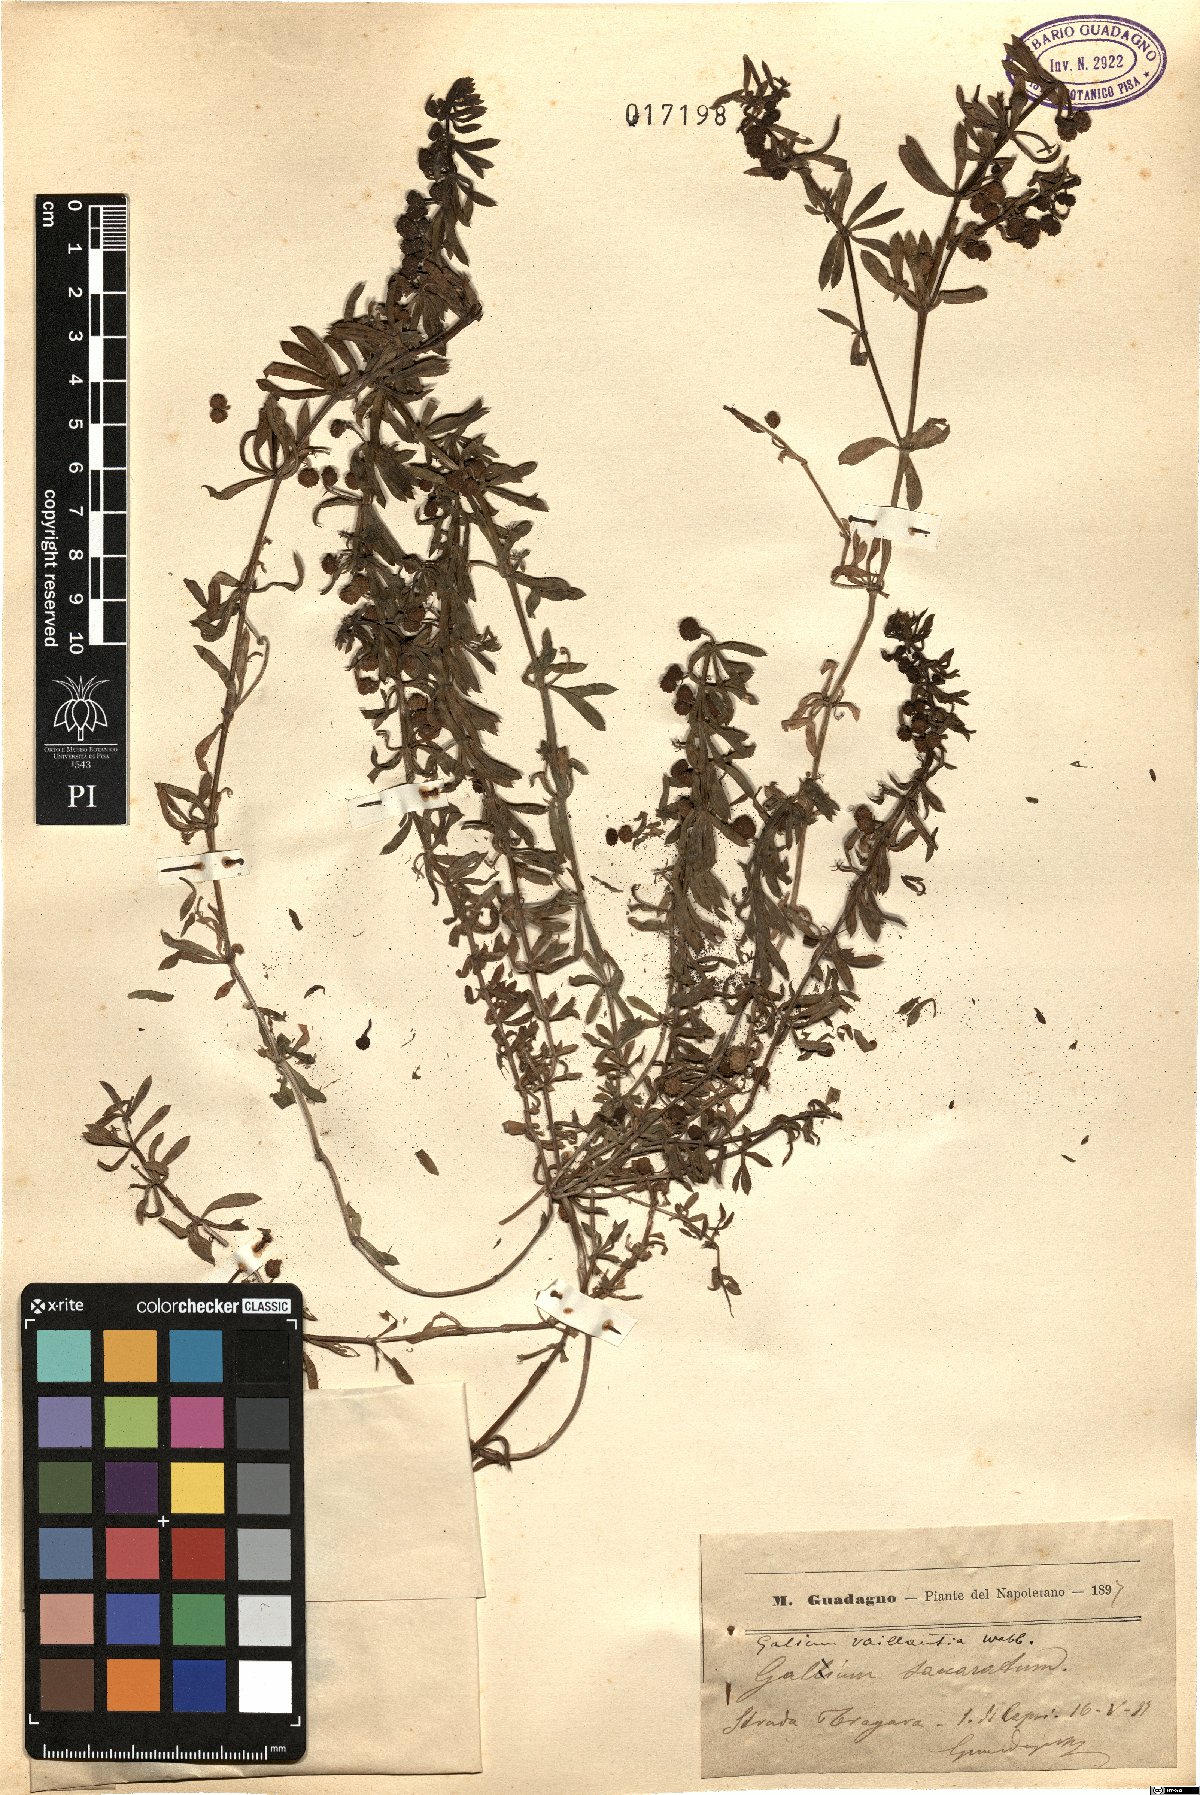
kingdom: Plantae
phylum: Tracheophyta
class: Magnoliopsida
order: Gentianales
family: Rubiaceae
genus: Galium
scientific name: Galium verrucosum
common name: Warty bedstraw
